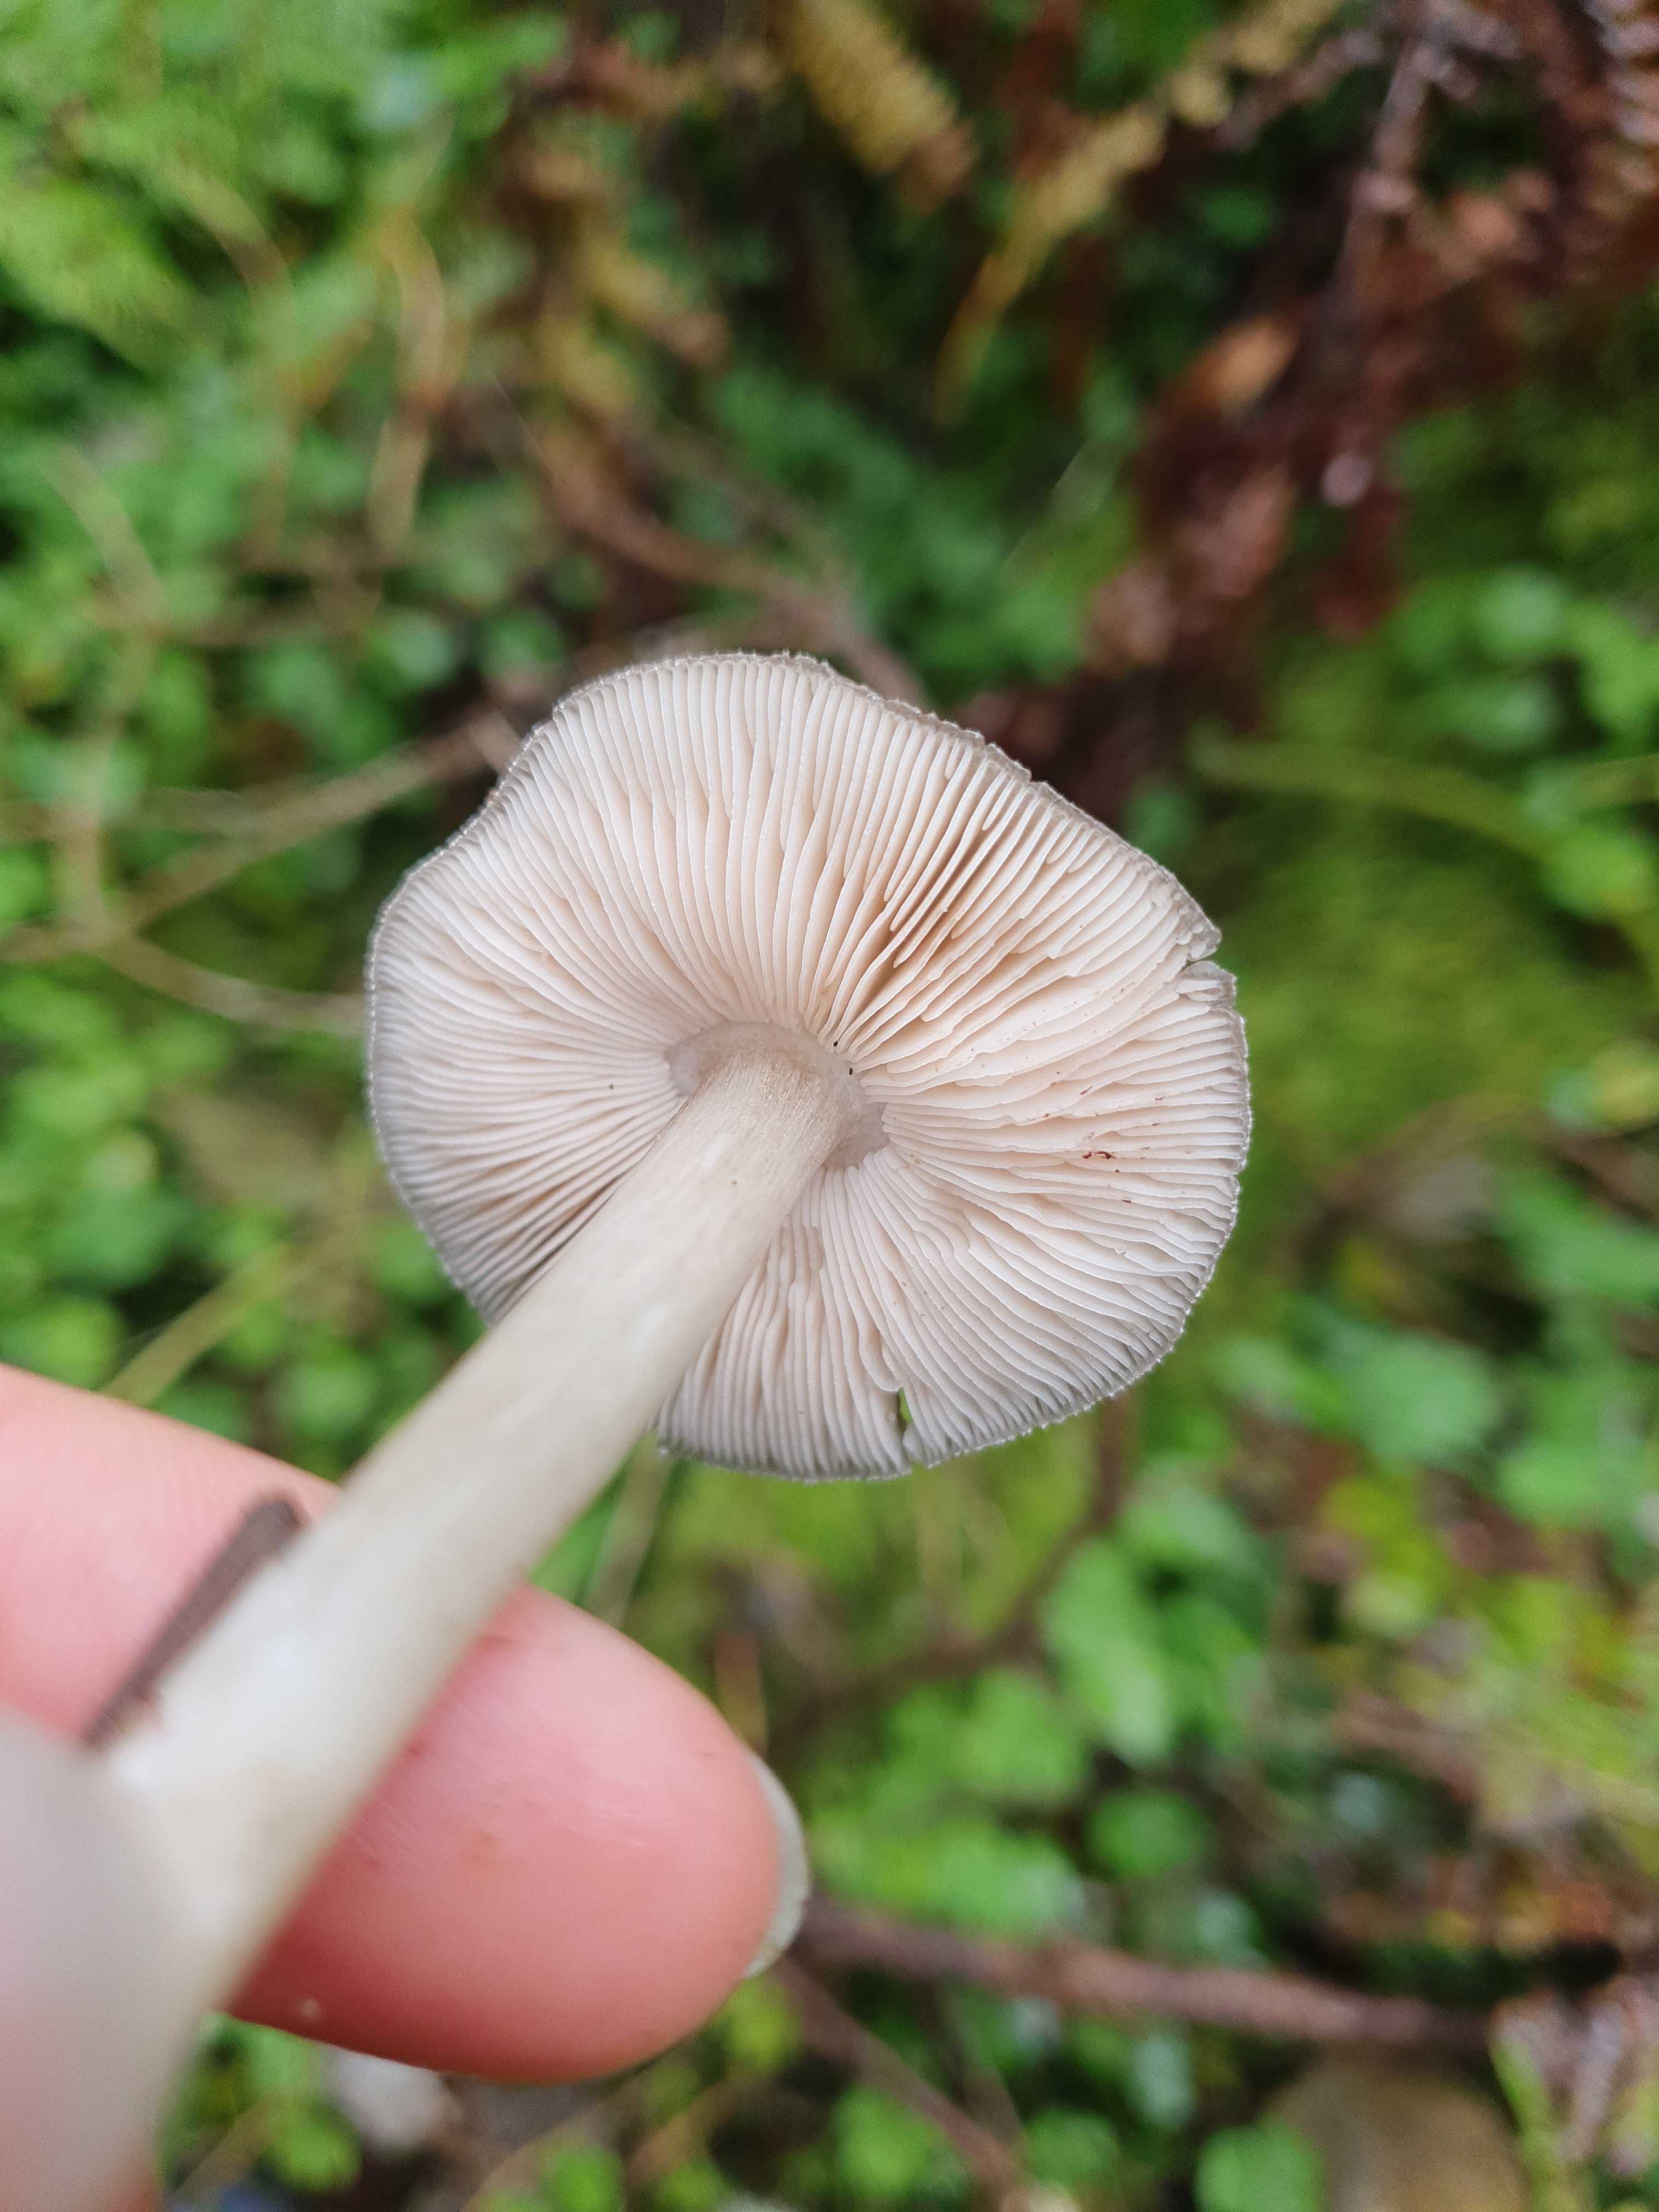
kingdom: Fungi
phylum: Basidiomycota
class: Agaricomycetes
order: Agaricales
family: Pluteaceae
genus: Pluteus
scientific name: Pluteus
